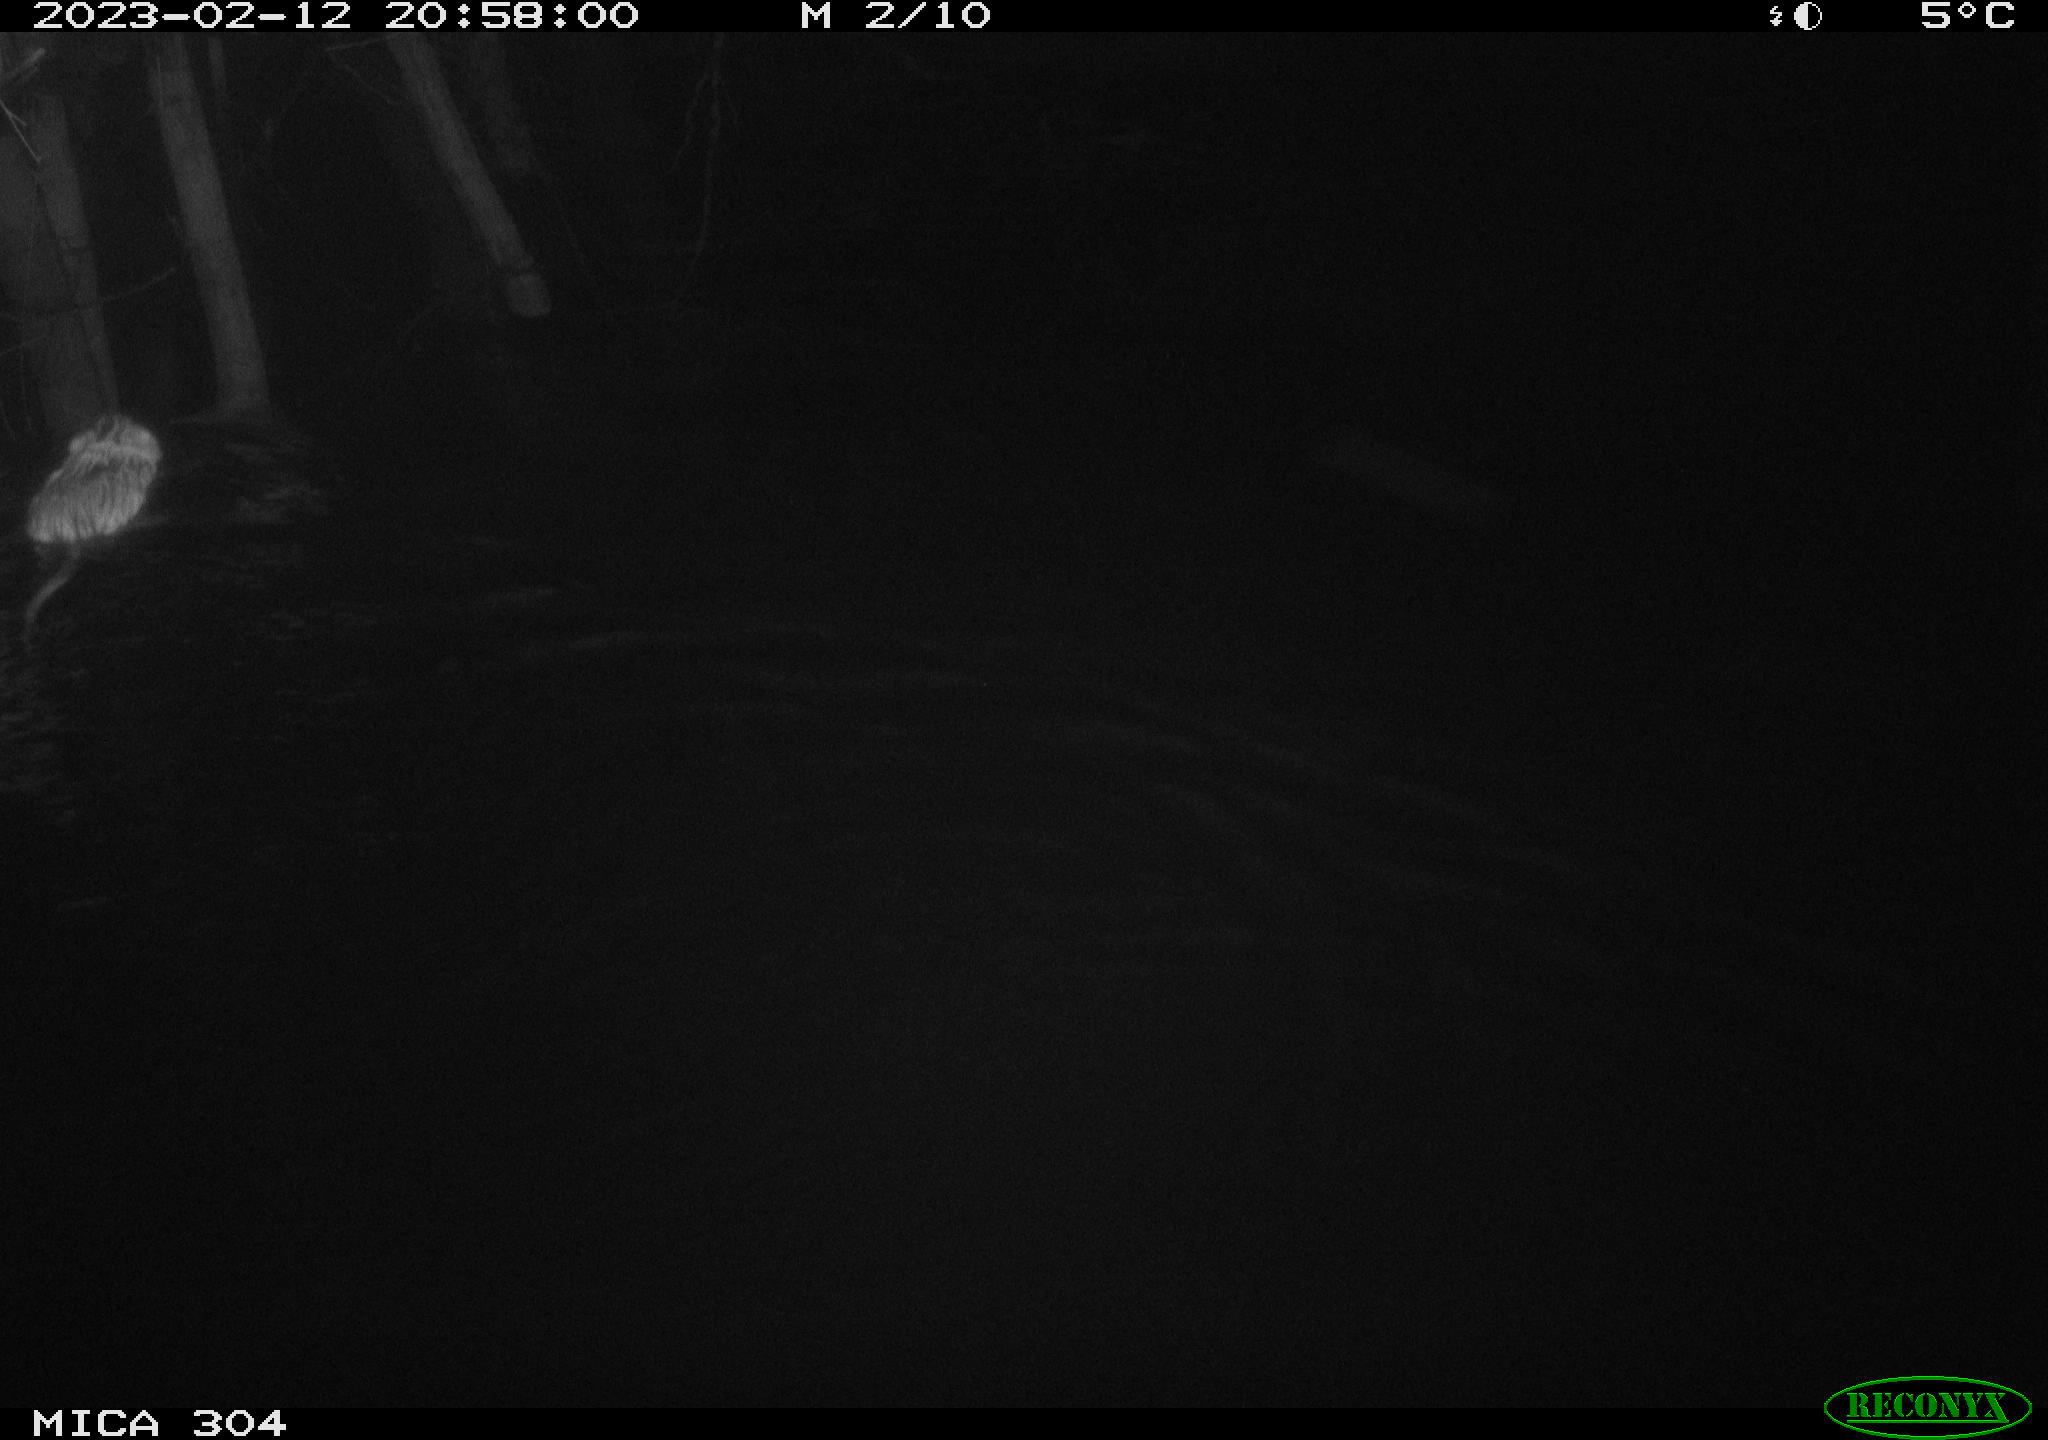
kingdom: Animalia
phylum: Chordata
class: Mammalia
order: Rodentia
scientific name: Rodentia
